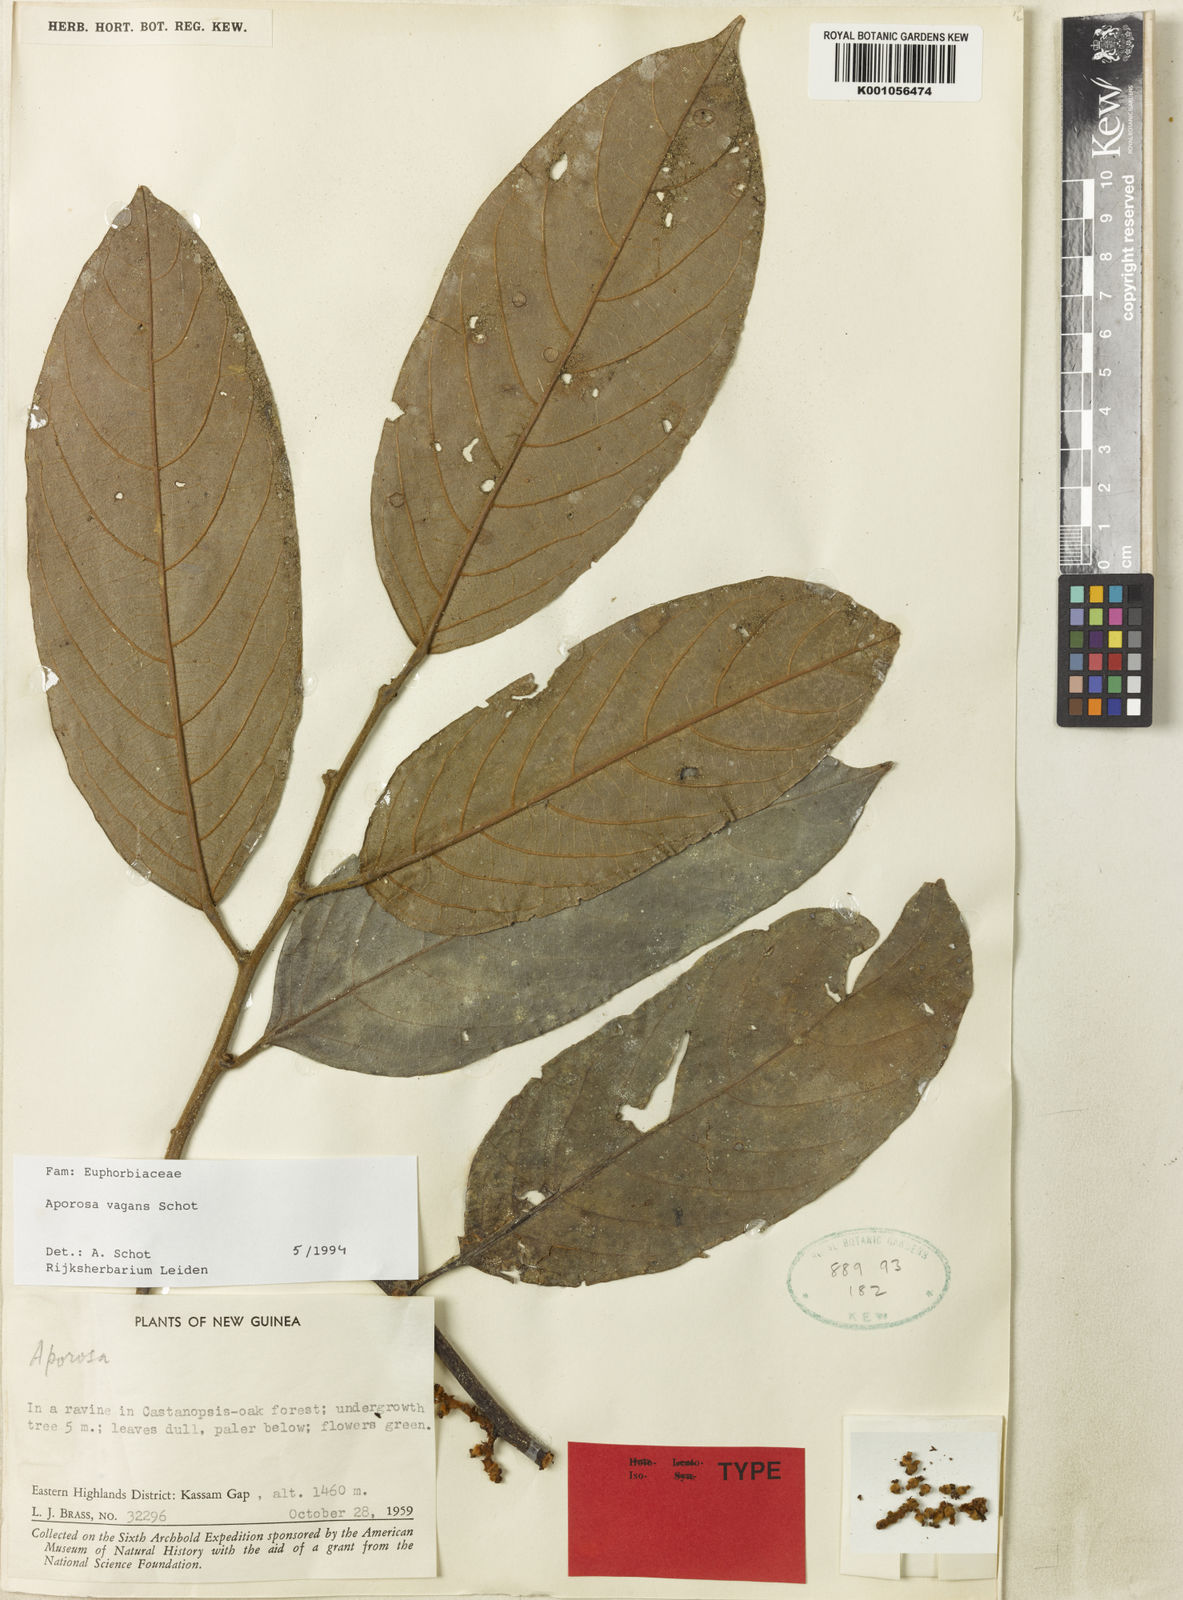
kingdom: Plantae
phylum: Tracheophyta
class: Magnoliopsida
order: Malpighiales
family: Phyllanthaceae
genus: Aporosa
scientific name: Aporosa vagans
